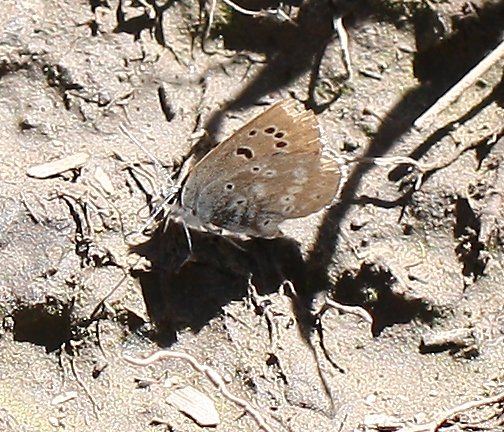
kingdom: Animalia
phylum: Arthropoda
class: Insecta
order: Lepidoptera
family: Lycaenidae
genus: Icaricia
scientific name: Icaricia icarioides
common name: Boisduval's Blue
